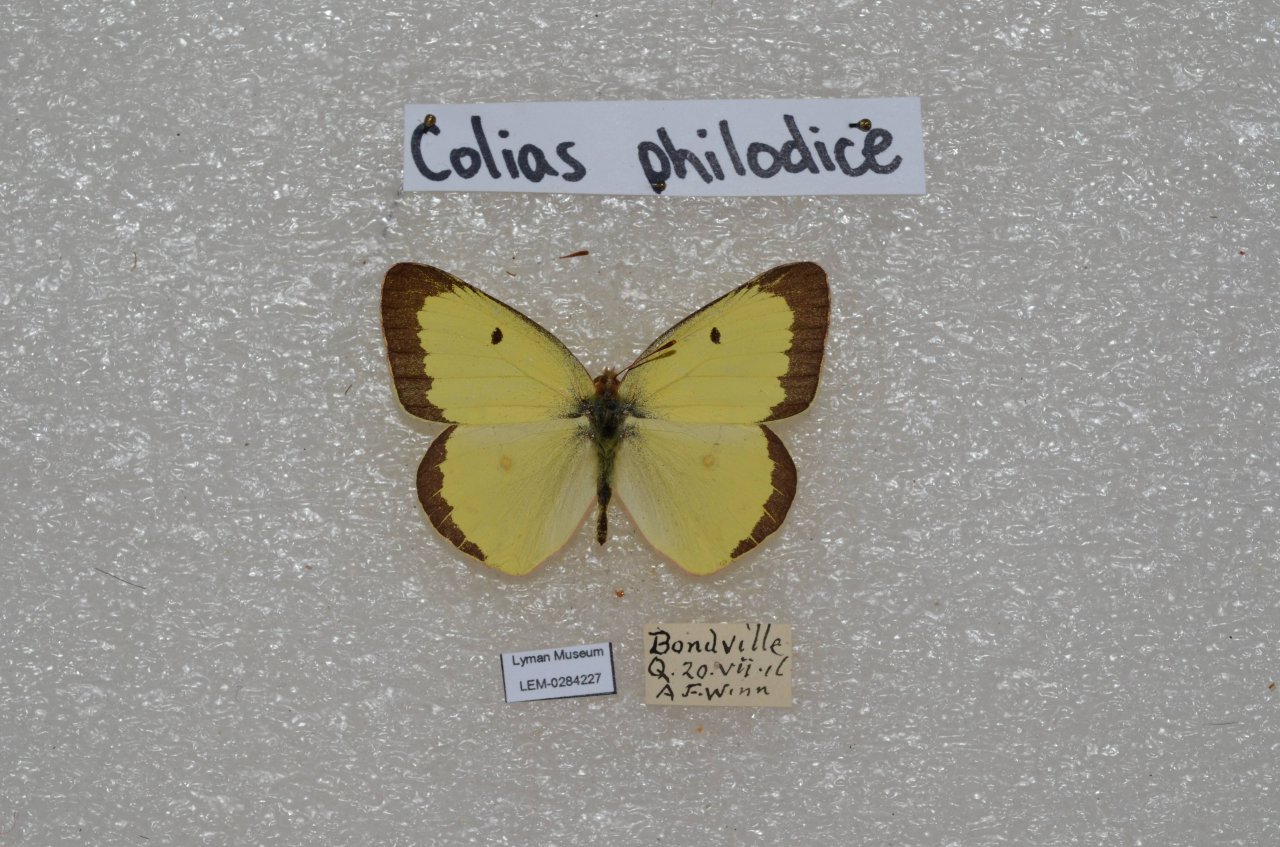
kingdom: Animalia
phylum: Arthropoda
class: Insecta
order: Lepidoptera
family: Pieridae
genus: Colias
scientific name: Colias philodice
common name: Clouded Sulphur
